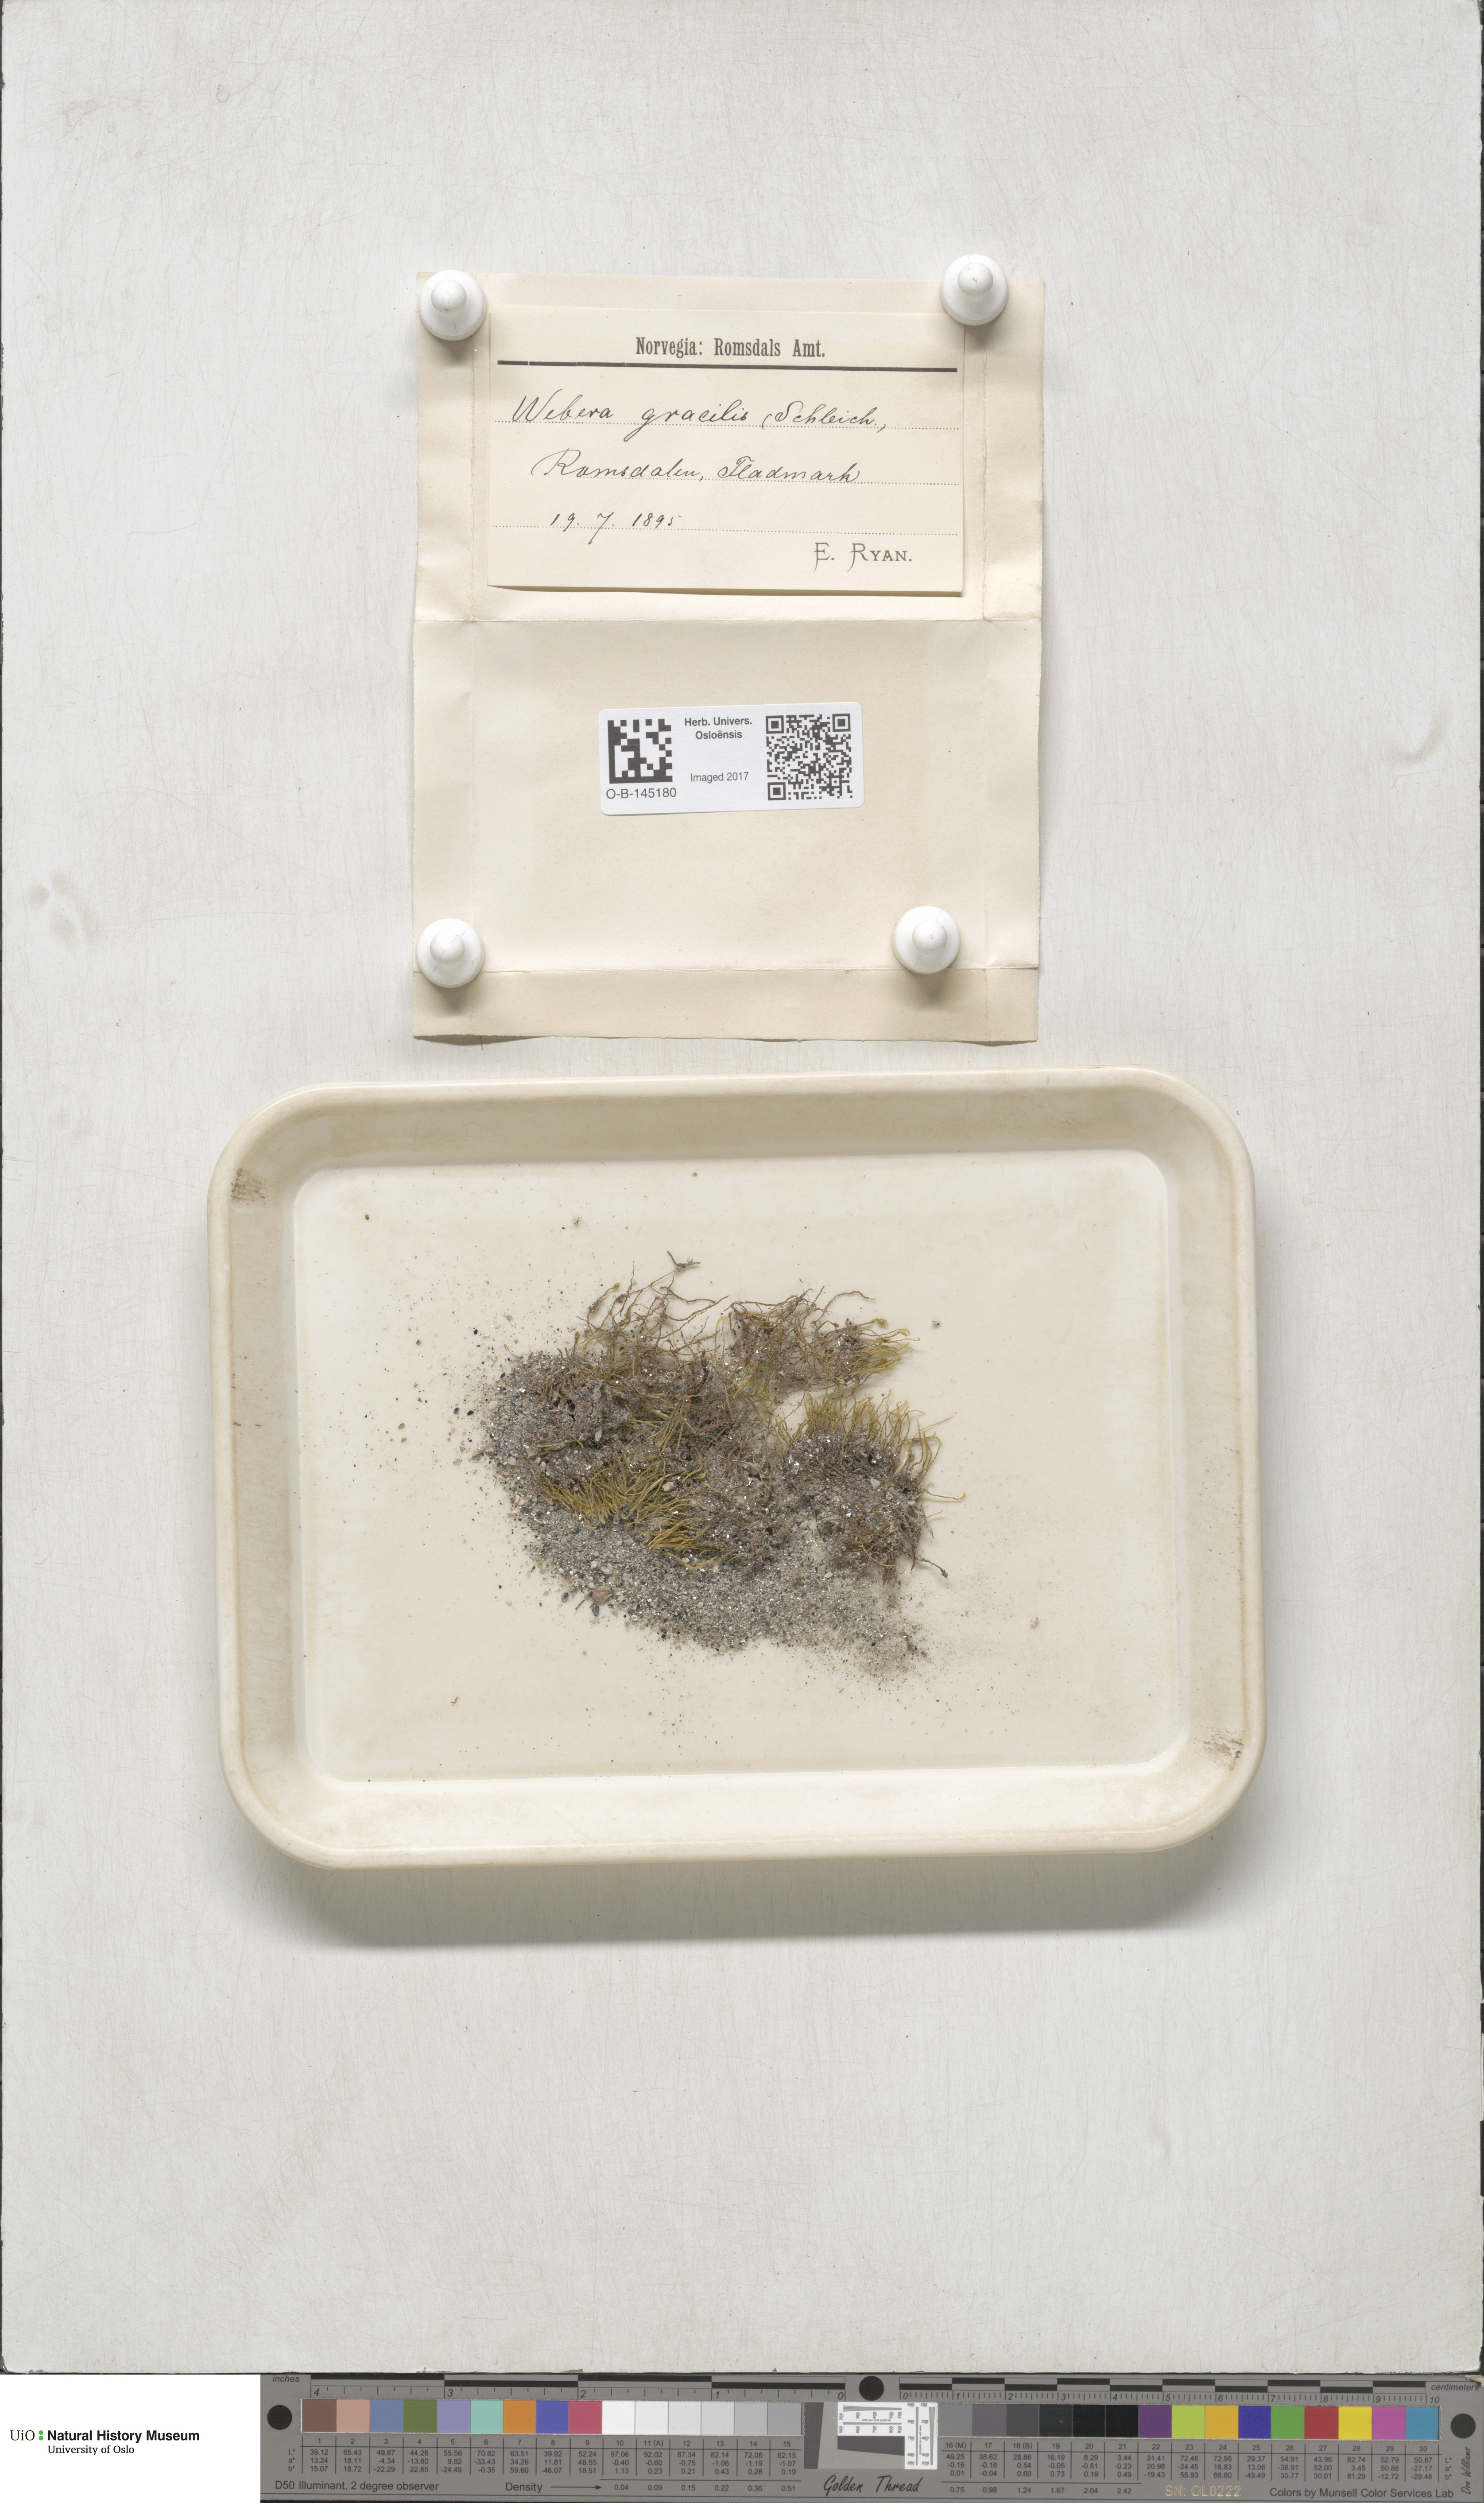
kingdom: Plantae
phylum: Bryophyta
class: Bryopsida
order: Bryales
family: Mniaceae
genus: Pohlia
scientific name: Pohlia filum
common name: Slender nodding moss
